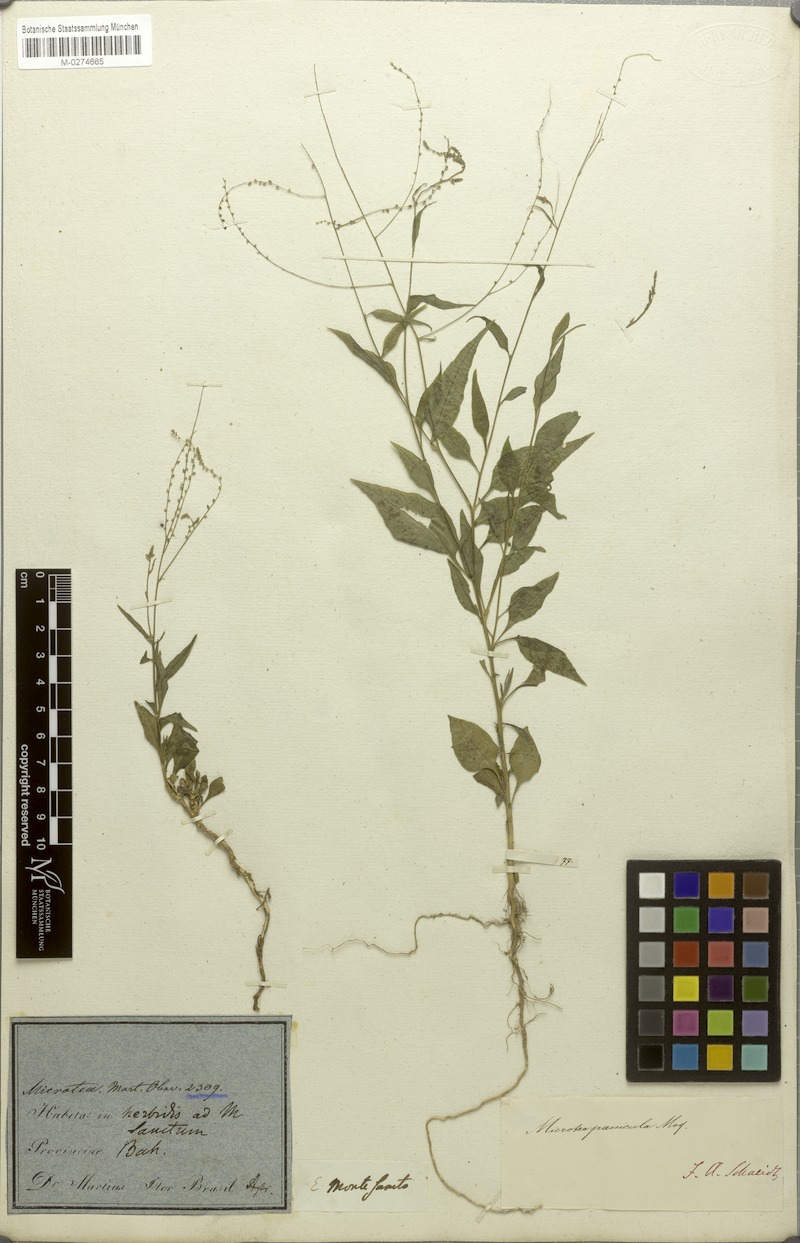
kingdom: Plantae
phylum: Tracheophyta
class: Magnoliopsida
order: Caryophyllales
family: Microteaceae
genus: Microtea
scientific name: Microtea paniculata
